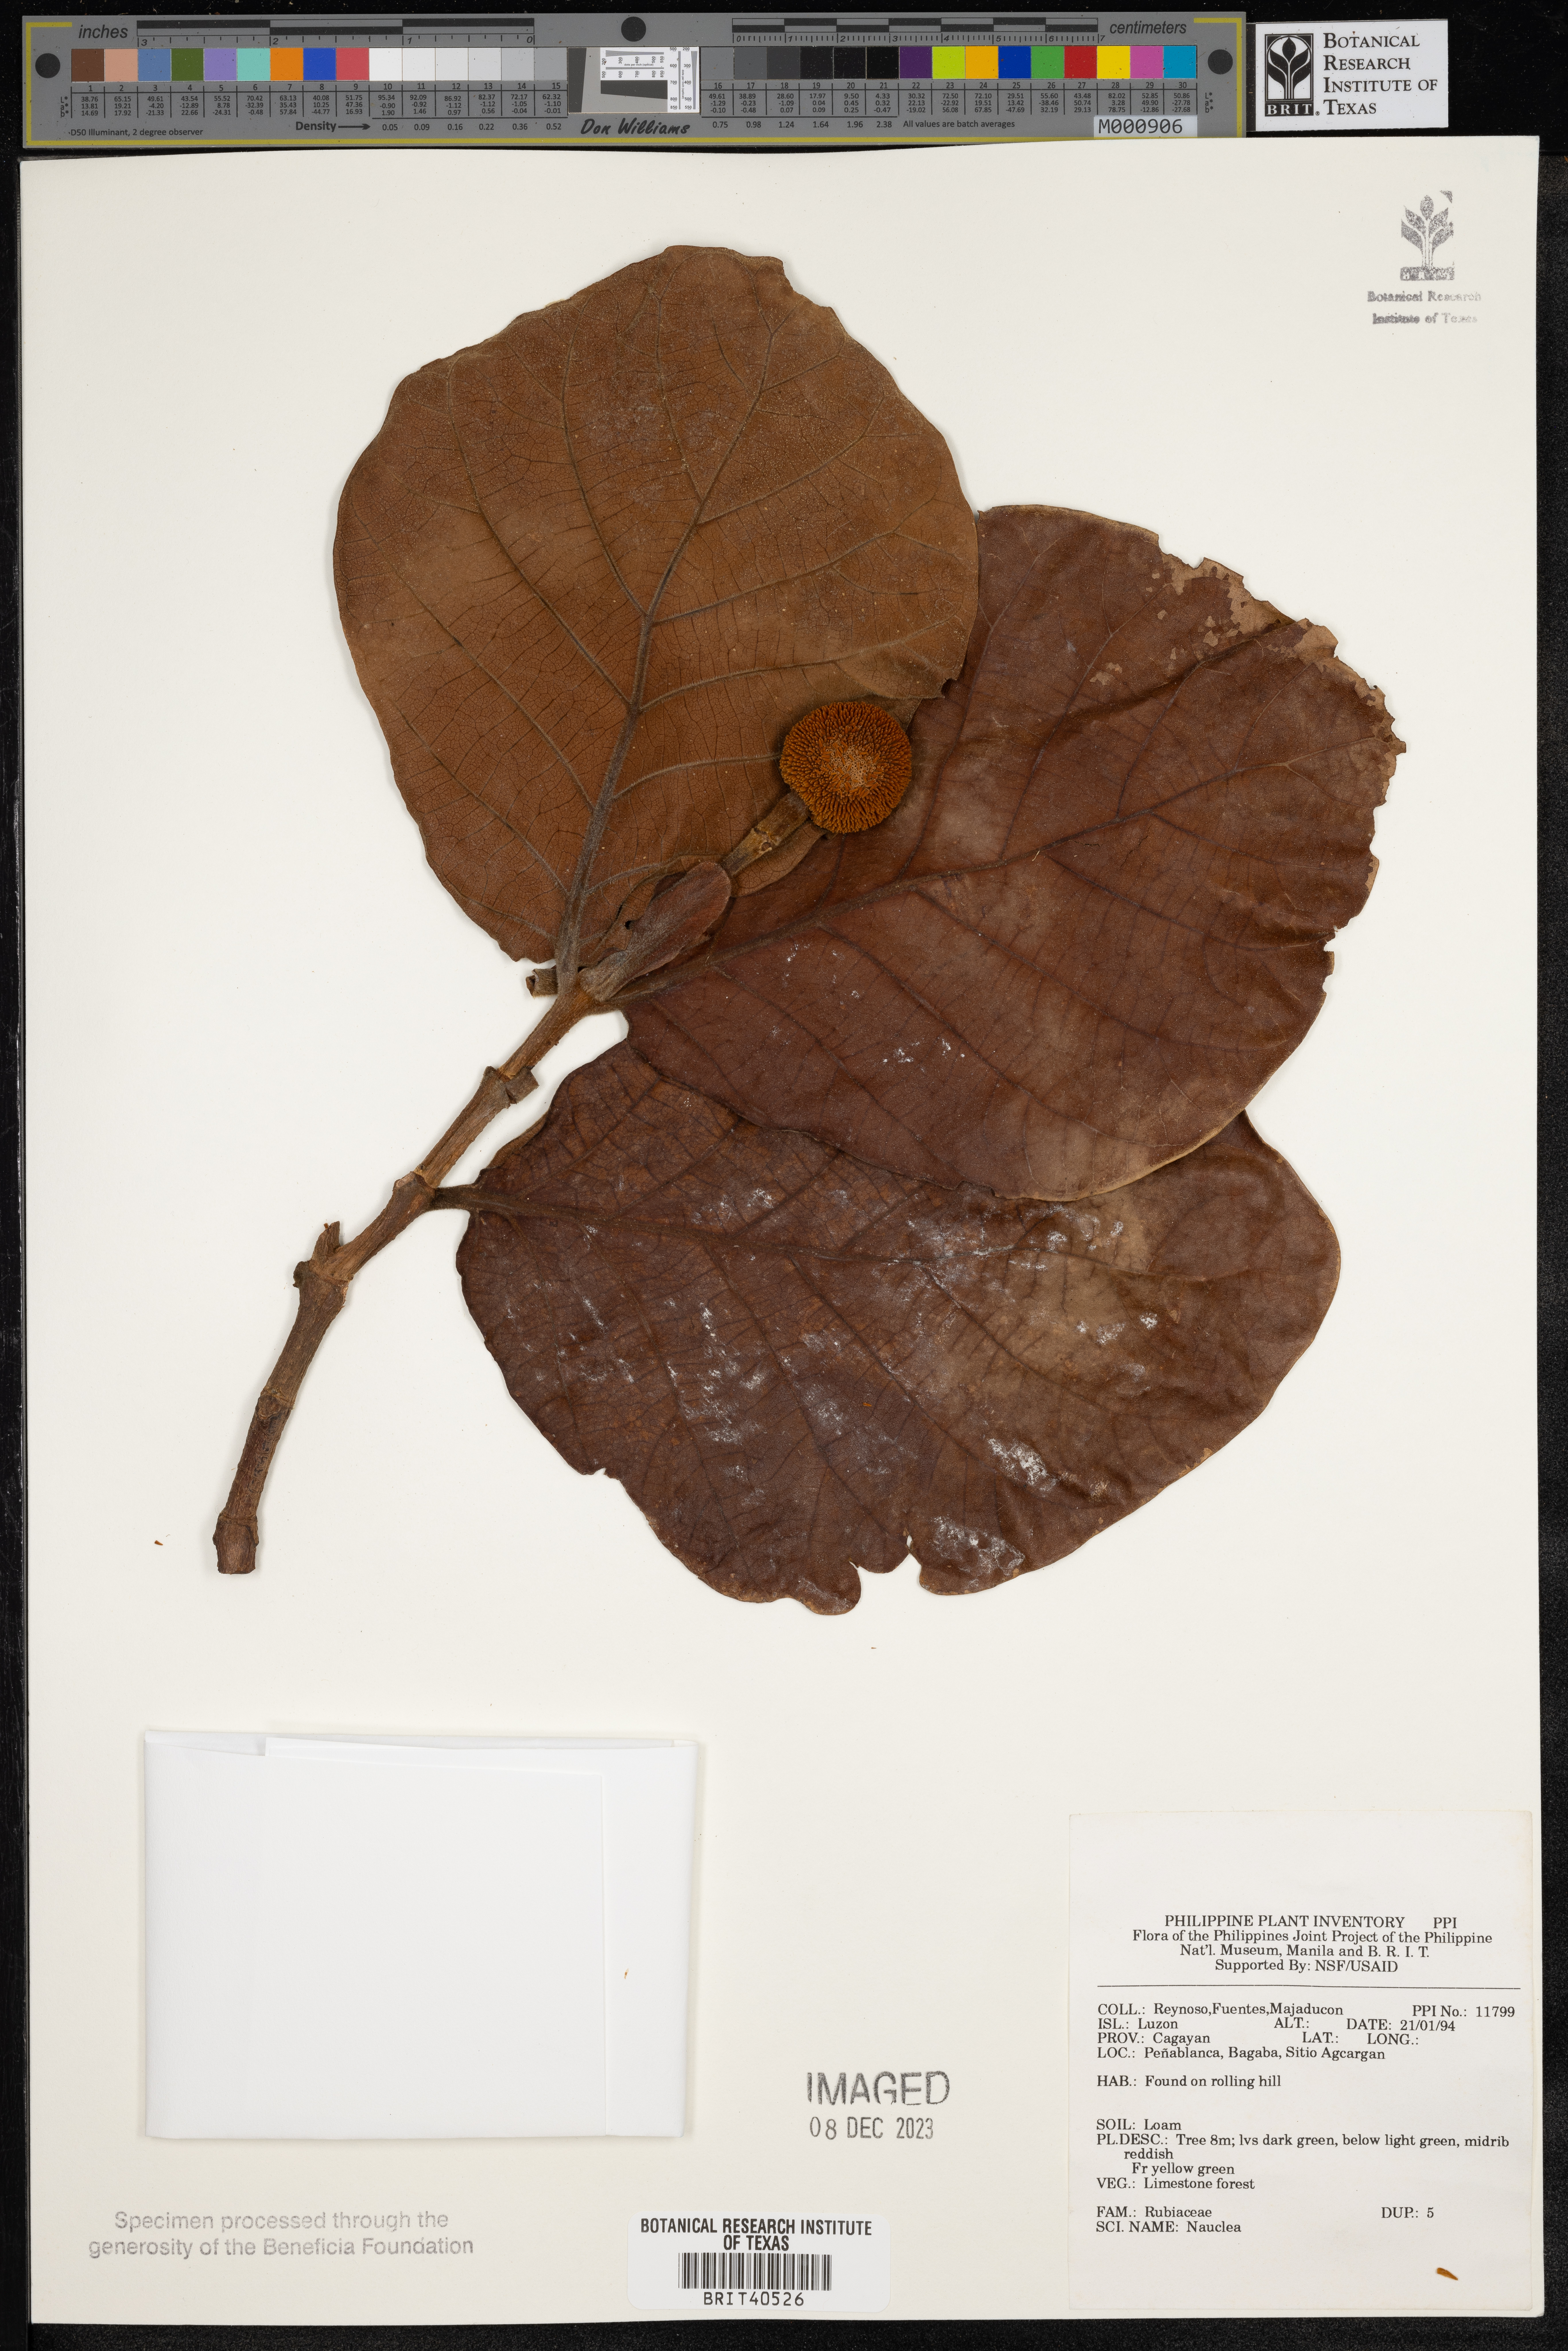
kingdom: Plantae
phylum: Tracheophyta
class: Magnoliopsida
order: Gentianales
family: Rubiaceae
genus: Nauclea
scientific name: Nauclea
